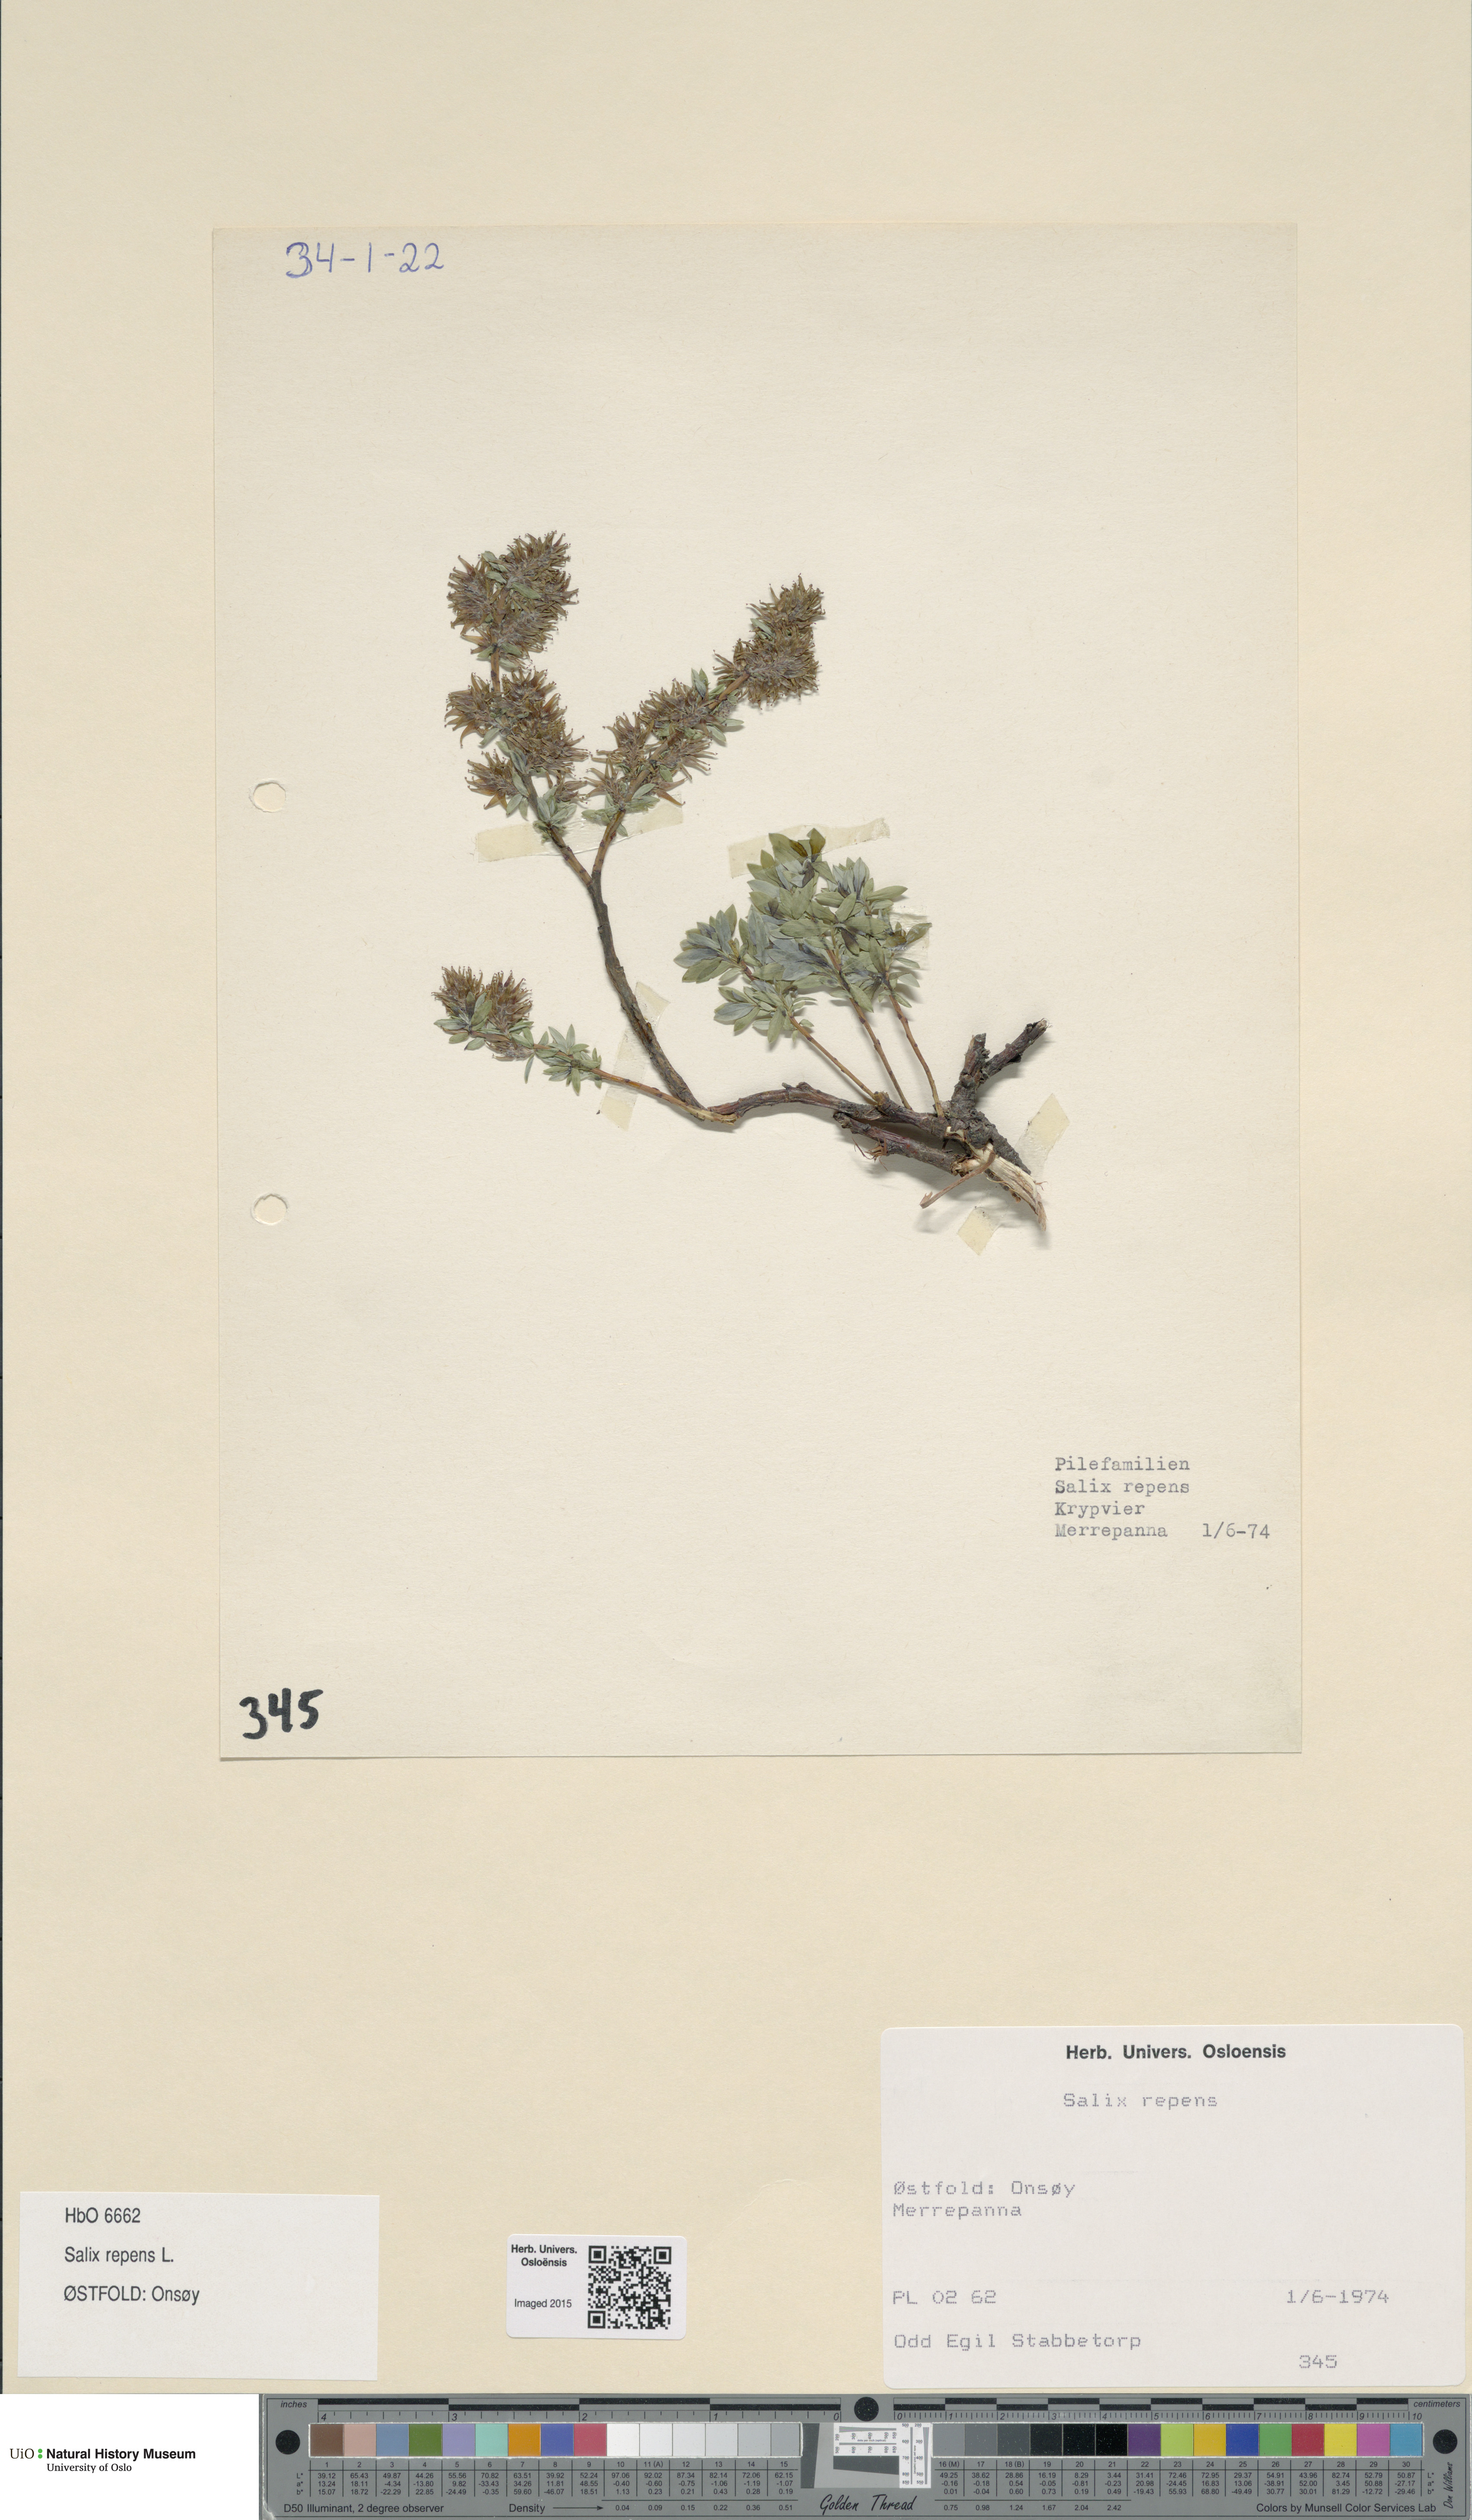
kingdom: Plantae
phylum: Tracheophyta
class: Magnoliopsida
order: Malpighiales
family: Salicaceae
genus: Salix
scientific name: Salix repens
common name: Creeping willow
